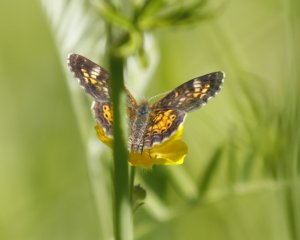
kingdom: Animalia
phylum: Arthropoda
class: Insecta
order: Lepidoptera
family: Nymphalidae
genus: Phyciodes
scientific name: Phyciodes tharos
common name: Northern Crescent
